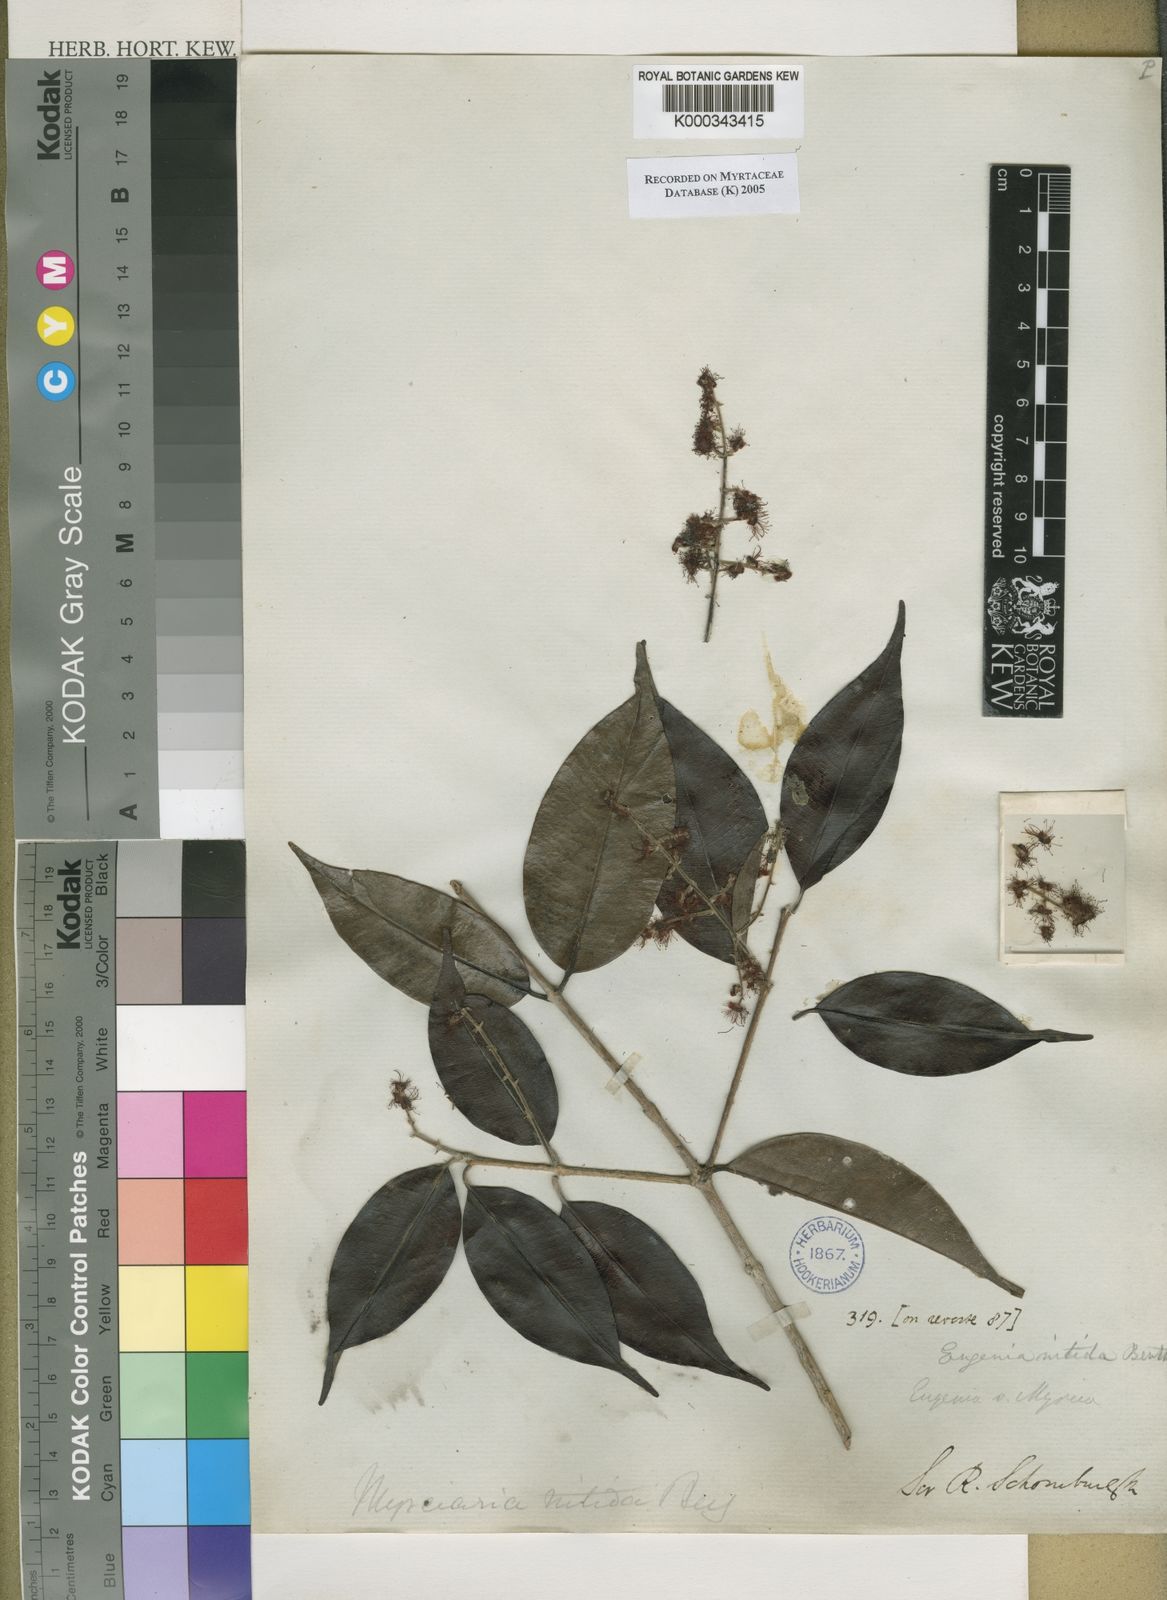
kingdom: Plantae
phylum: Tracheophyta
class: Magnoliopsida
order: Myrtales
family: Myrtaceae
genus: Myrcia
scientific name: Myrcia
